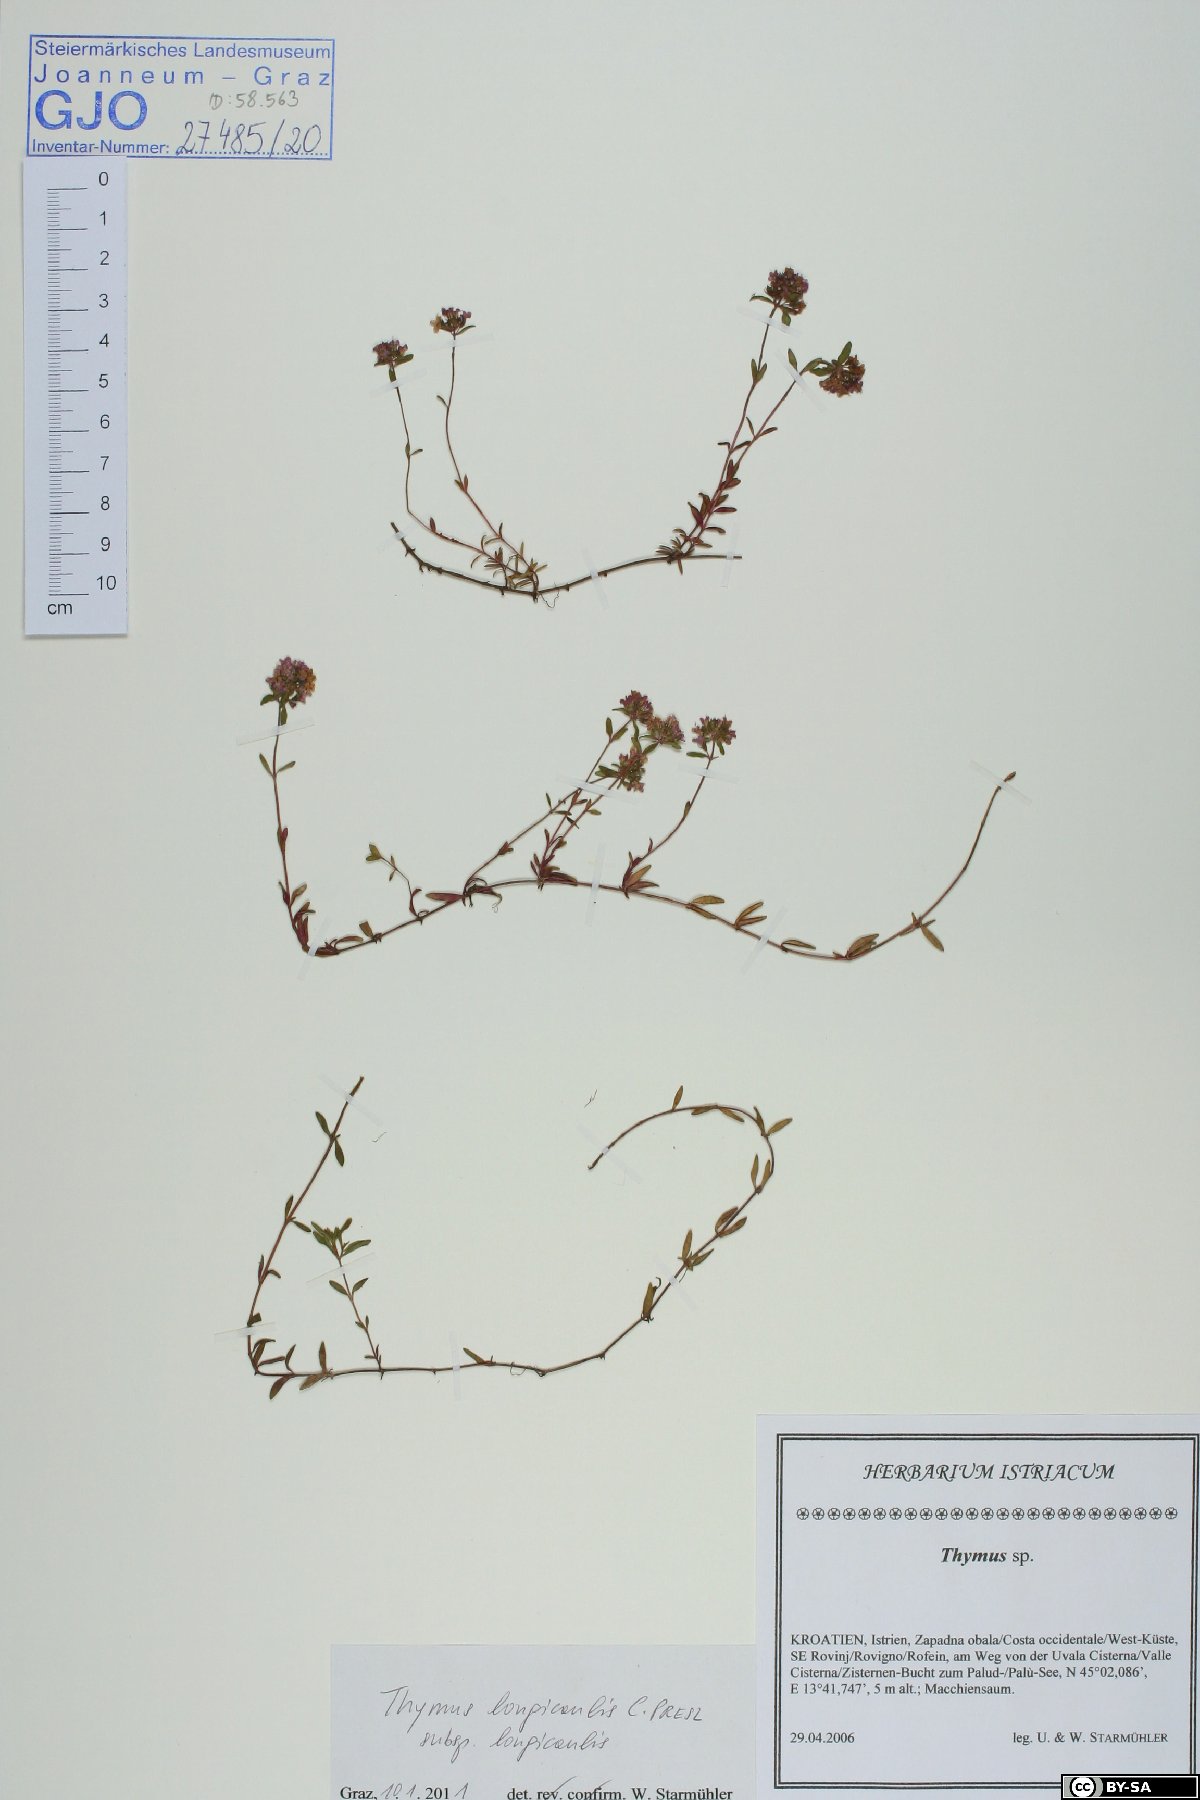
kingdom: Plantae
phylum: Tracheophyta
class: Magnoliopsida
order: Lamiales
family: Lamiaceae
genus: Thymus
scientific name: Thymus longicaulis
